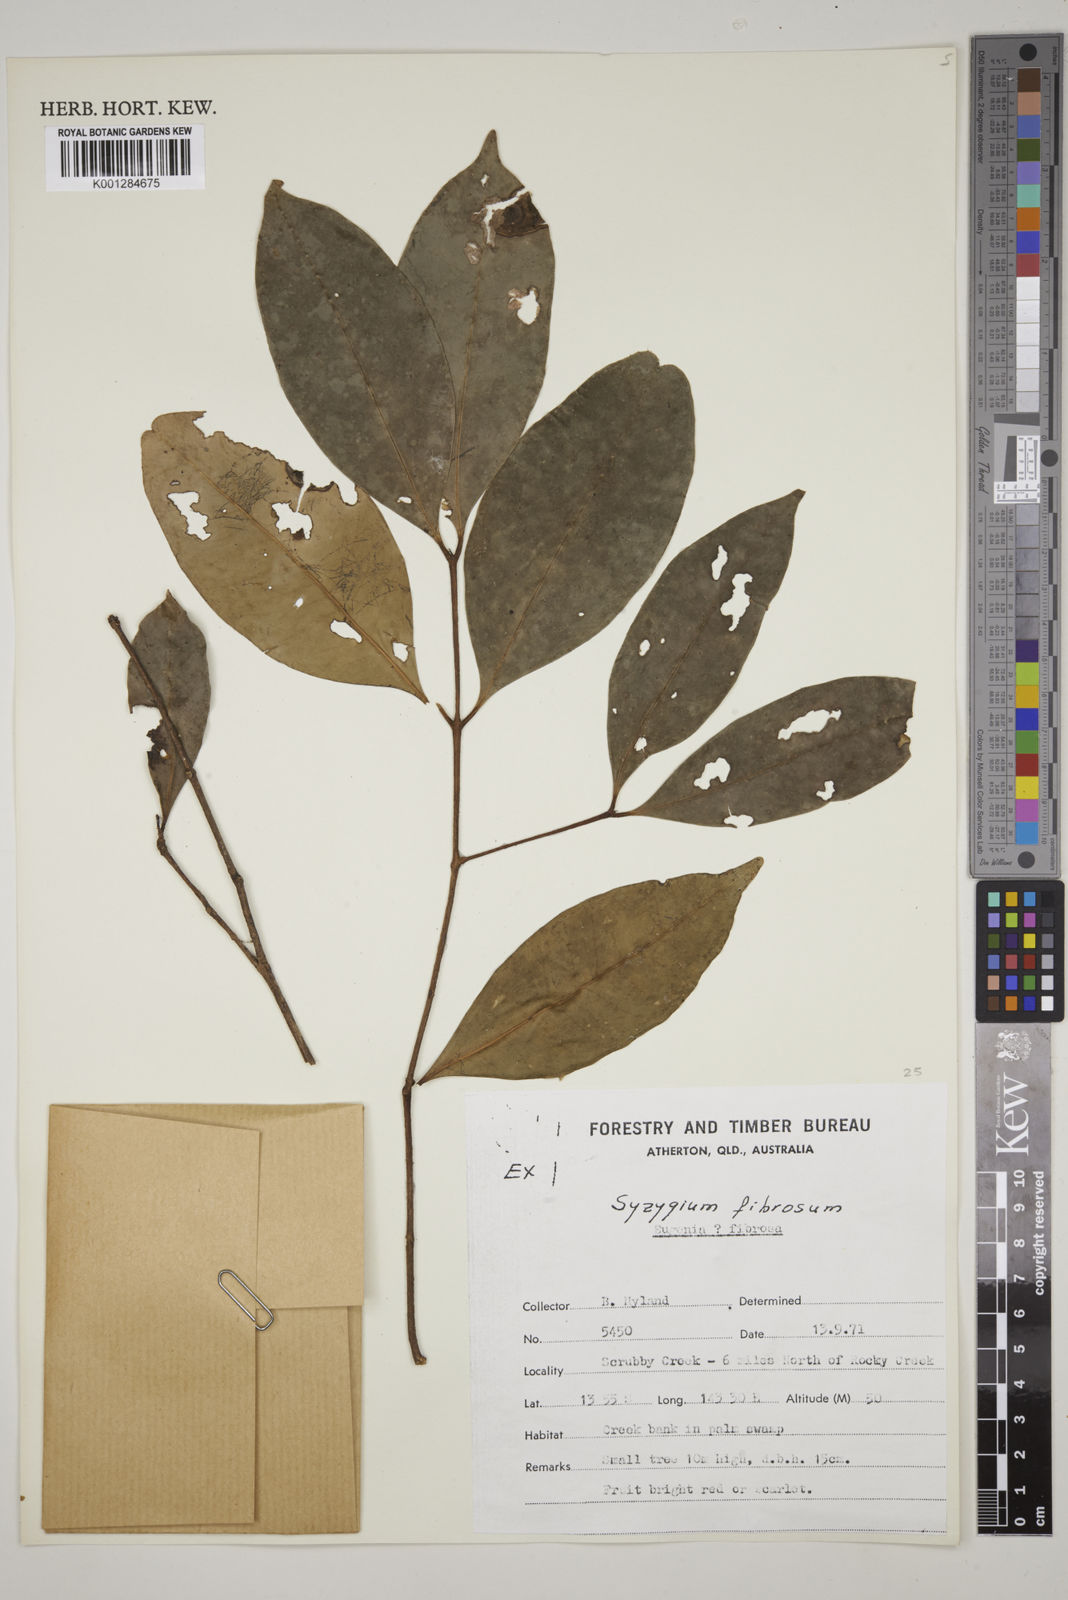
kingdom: Plantae
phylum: Tracheophyta
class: Magnoliopsida
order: Myrtales
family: Myrtaceae
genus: Syzygium
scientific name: Syzygium fibrosum
